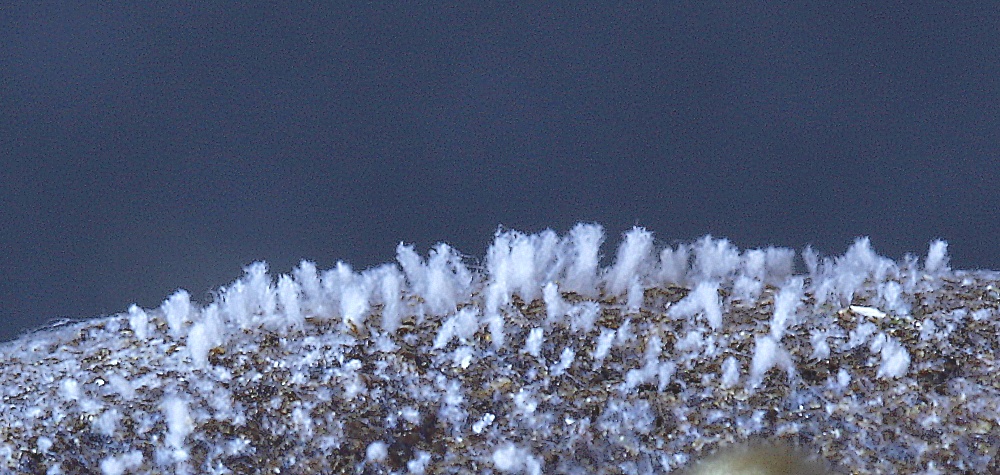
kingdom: Fungi
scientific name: Fungi
